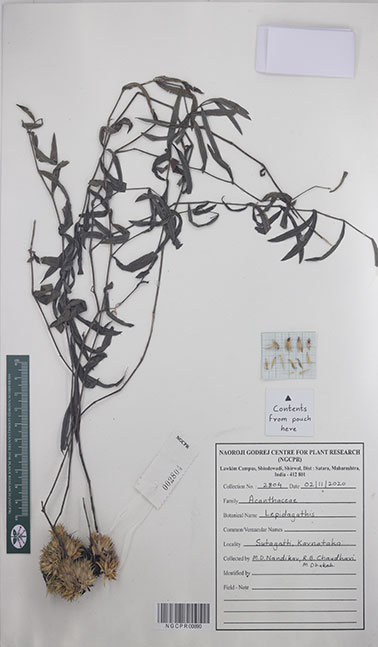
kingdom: Plantae
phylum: Tracheophyta
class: Magnoliopsida
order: Lamiales
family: Acanthaceae
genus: Lepidagathis
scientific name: Lepidagathis cristata
